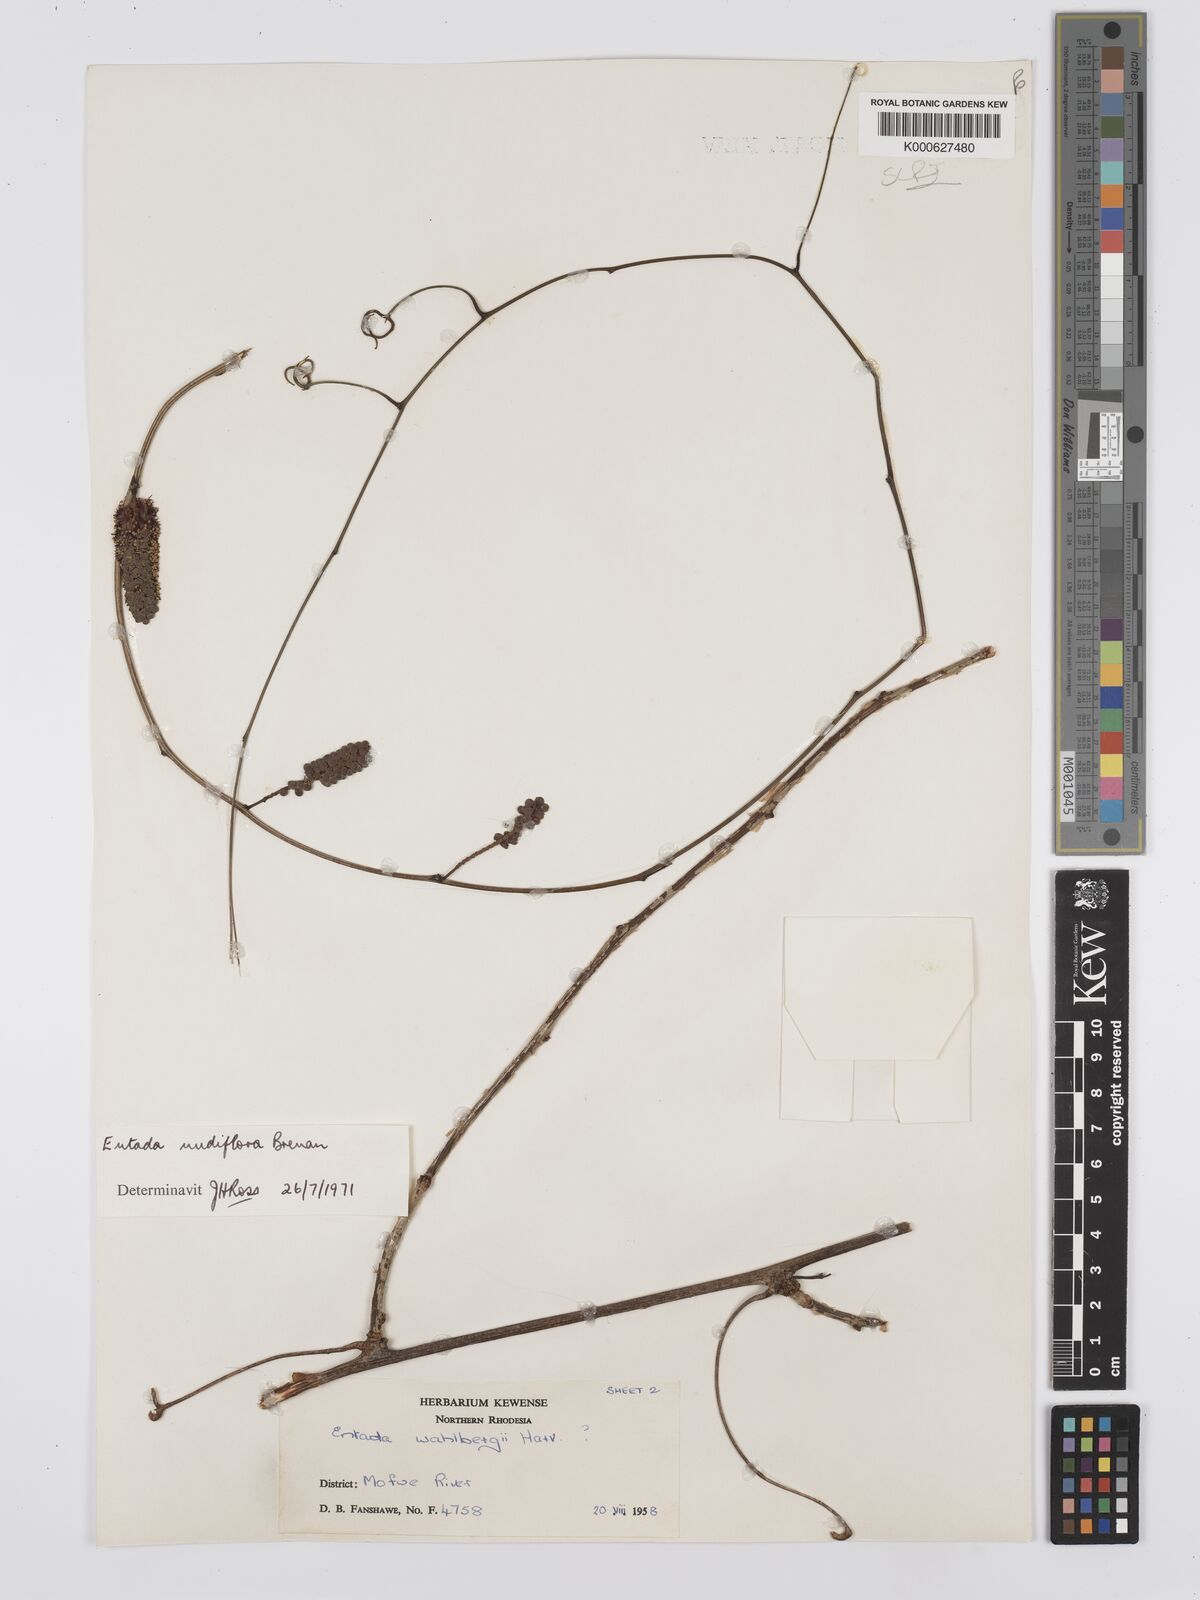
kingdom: Plantae
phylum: Tracheophyta
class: Magnoliopsida
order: Fabales
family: Fabaceae
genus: Entada
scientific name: Entada nudiflora
